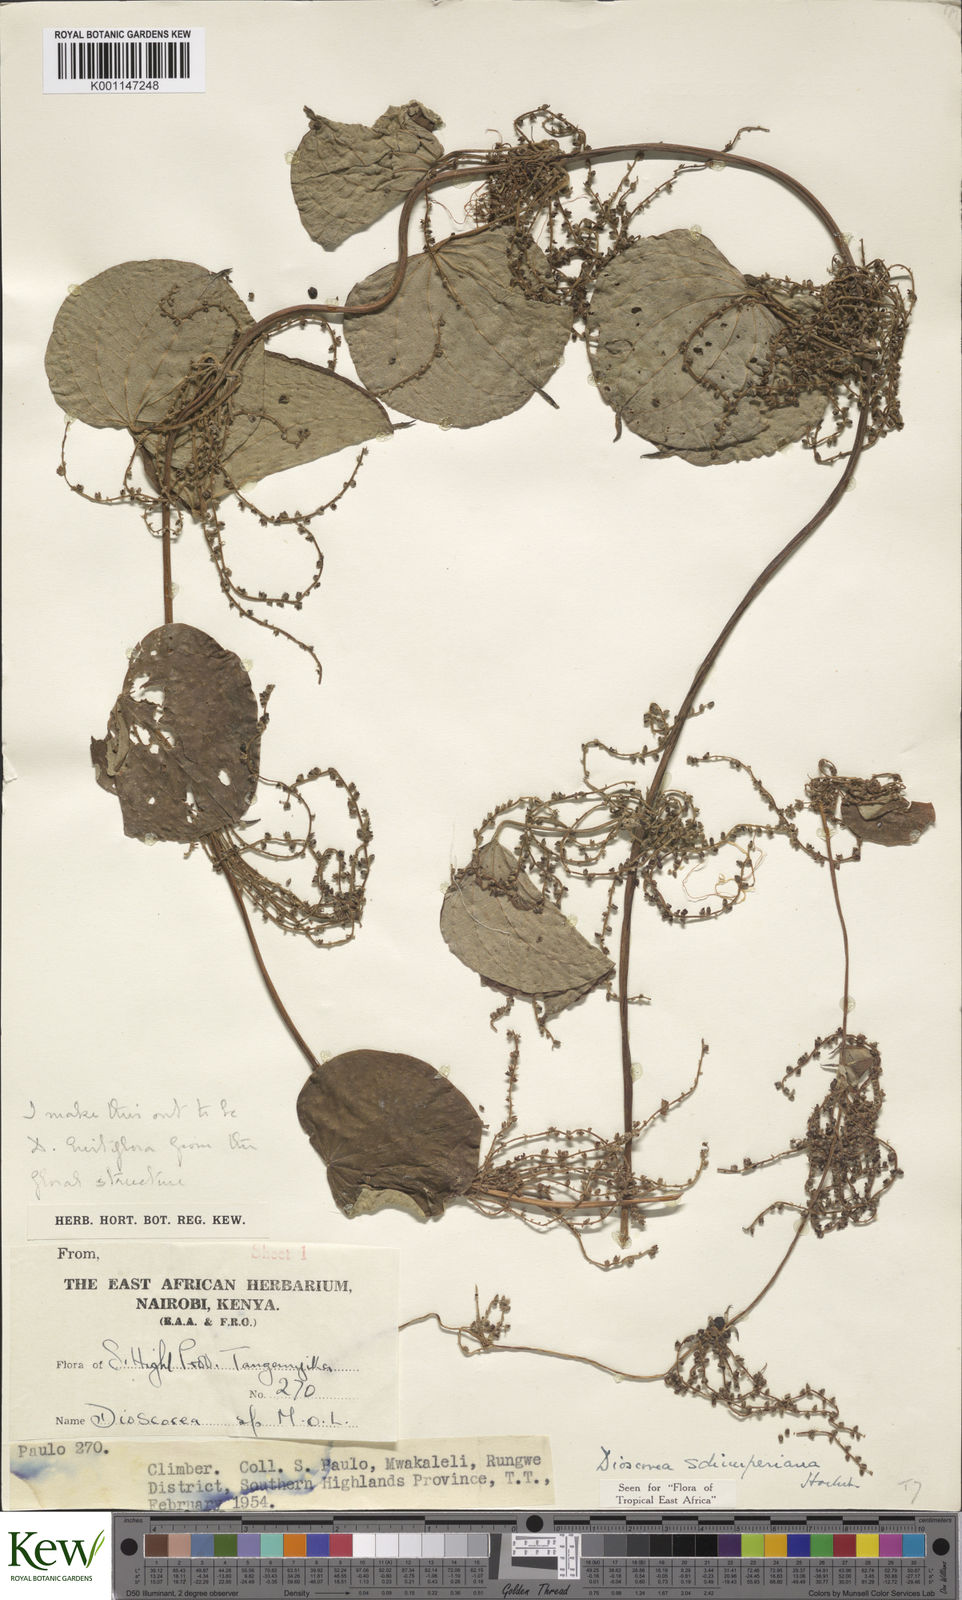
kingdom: Plantae
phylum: Tracheophyta
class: Liliopsida
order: Dioscoreales
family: Dioscoreaceae
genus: Dioscorea
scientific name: Dioscorea schimperiana
